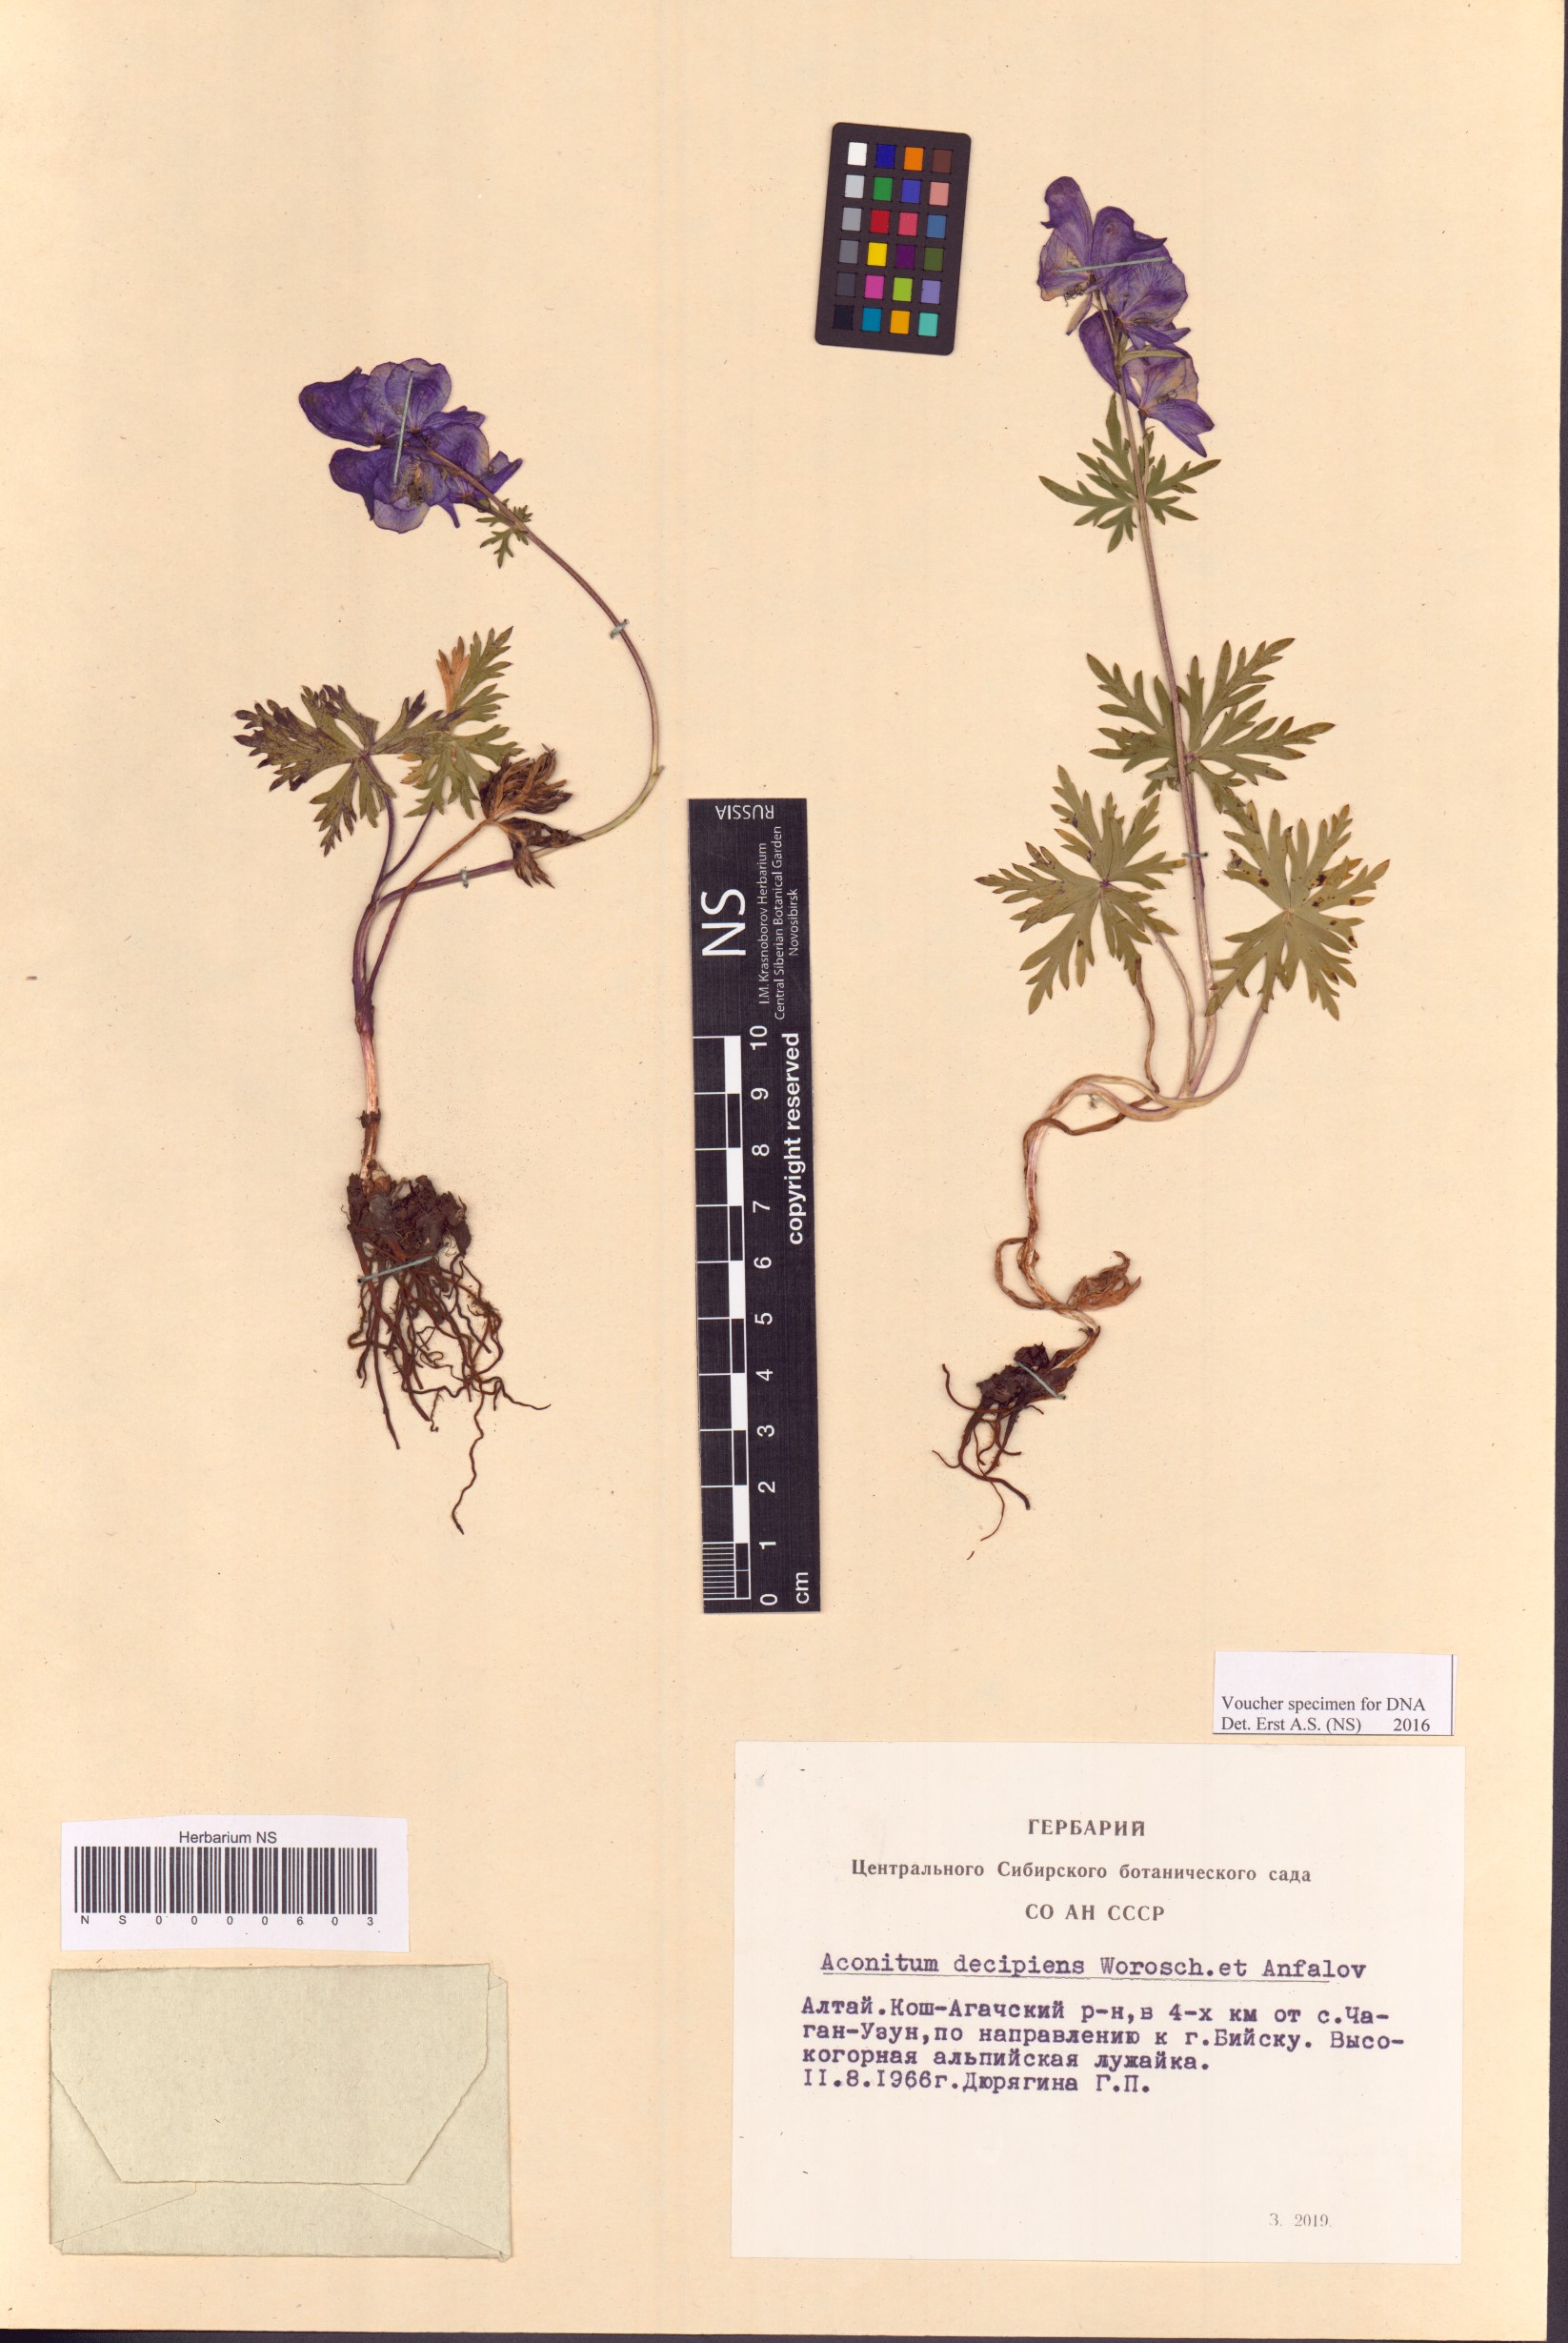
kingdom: Plantae
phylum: Tracheophyta
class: Magnoliopsida
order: Ranunculales
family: Ranunculaceae
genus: Aconitum
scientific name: Aconitum decipiens
